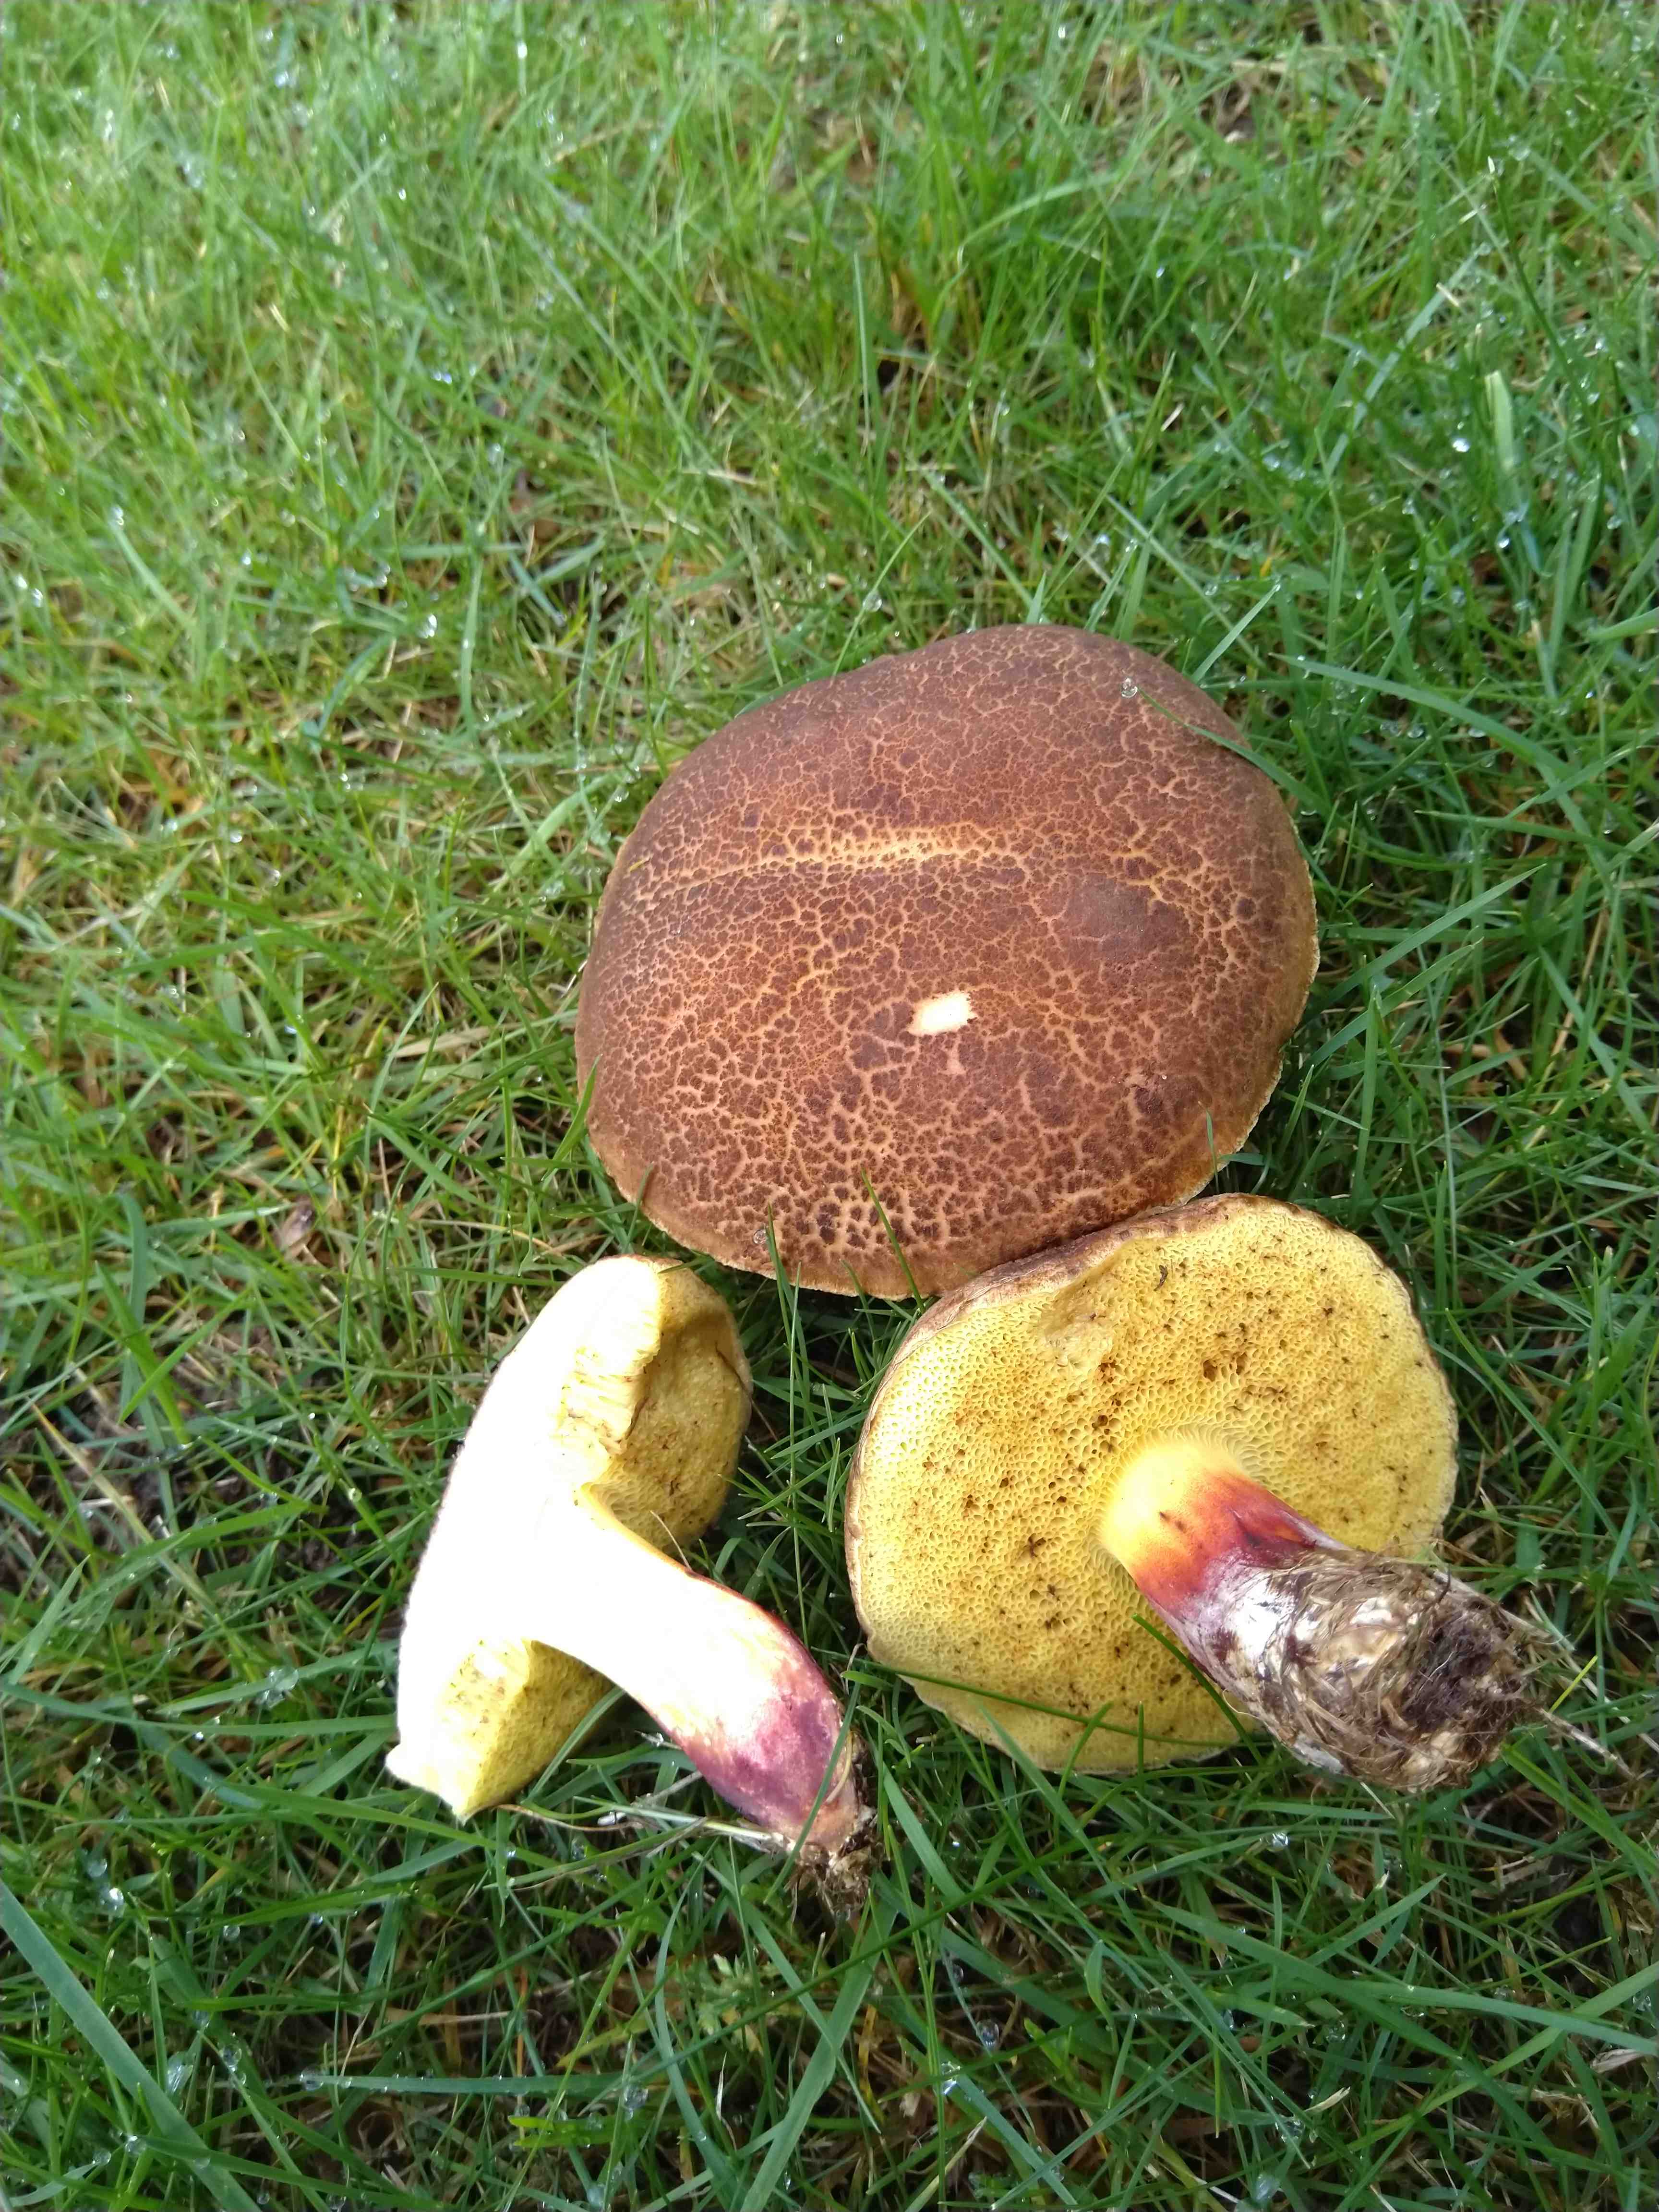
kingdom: Fungi
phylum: Basidiomycota
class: Agaricomycetes
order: Boletales
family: Boletaceae
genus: Xerocomellus
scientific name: Xerocomellus chrysenteron
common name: rødsprukken rørhat
